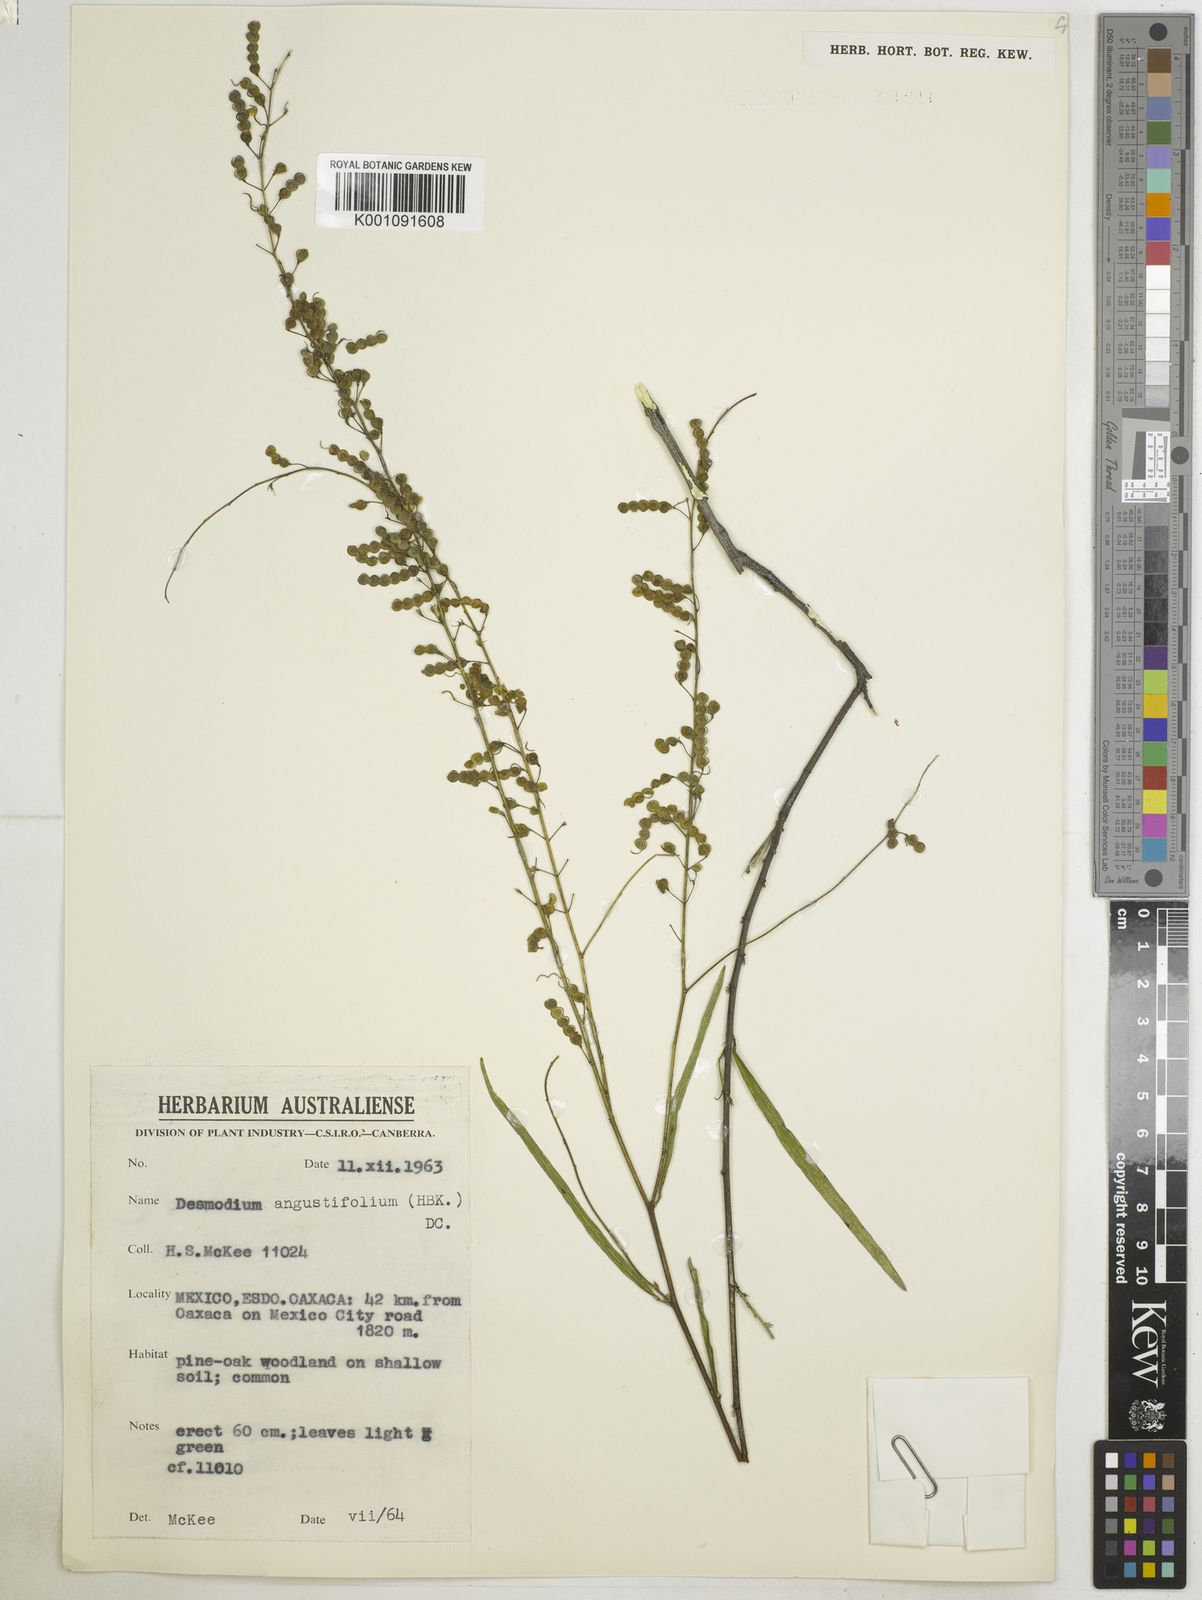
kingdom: Plantae
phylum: Tracheophyta
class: Magnoliopsida
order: Fabales
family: Fabaceae
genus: Desmodium
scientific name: Desmodium angustifolium
